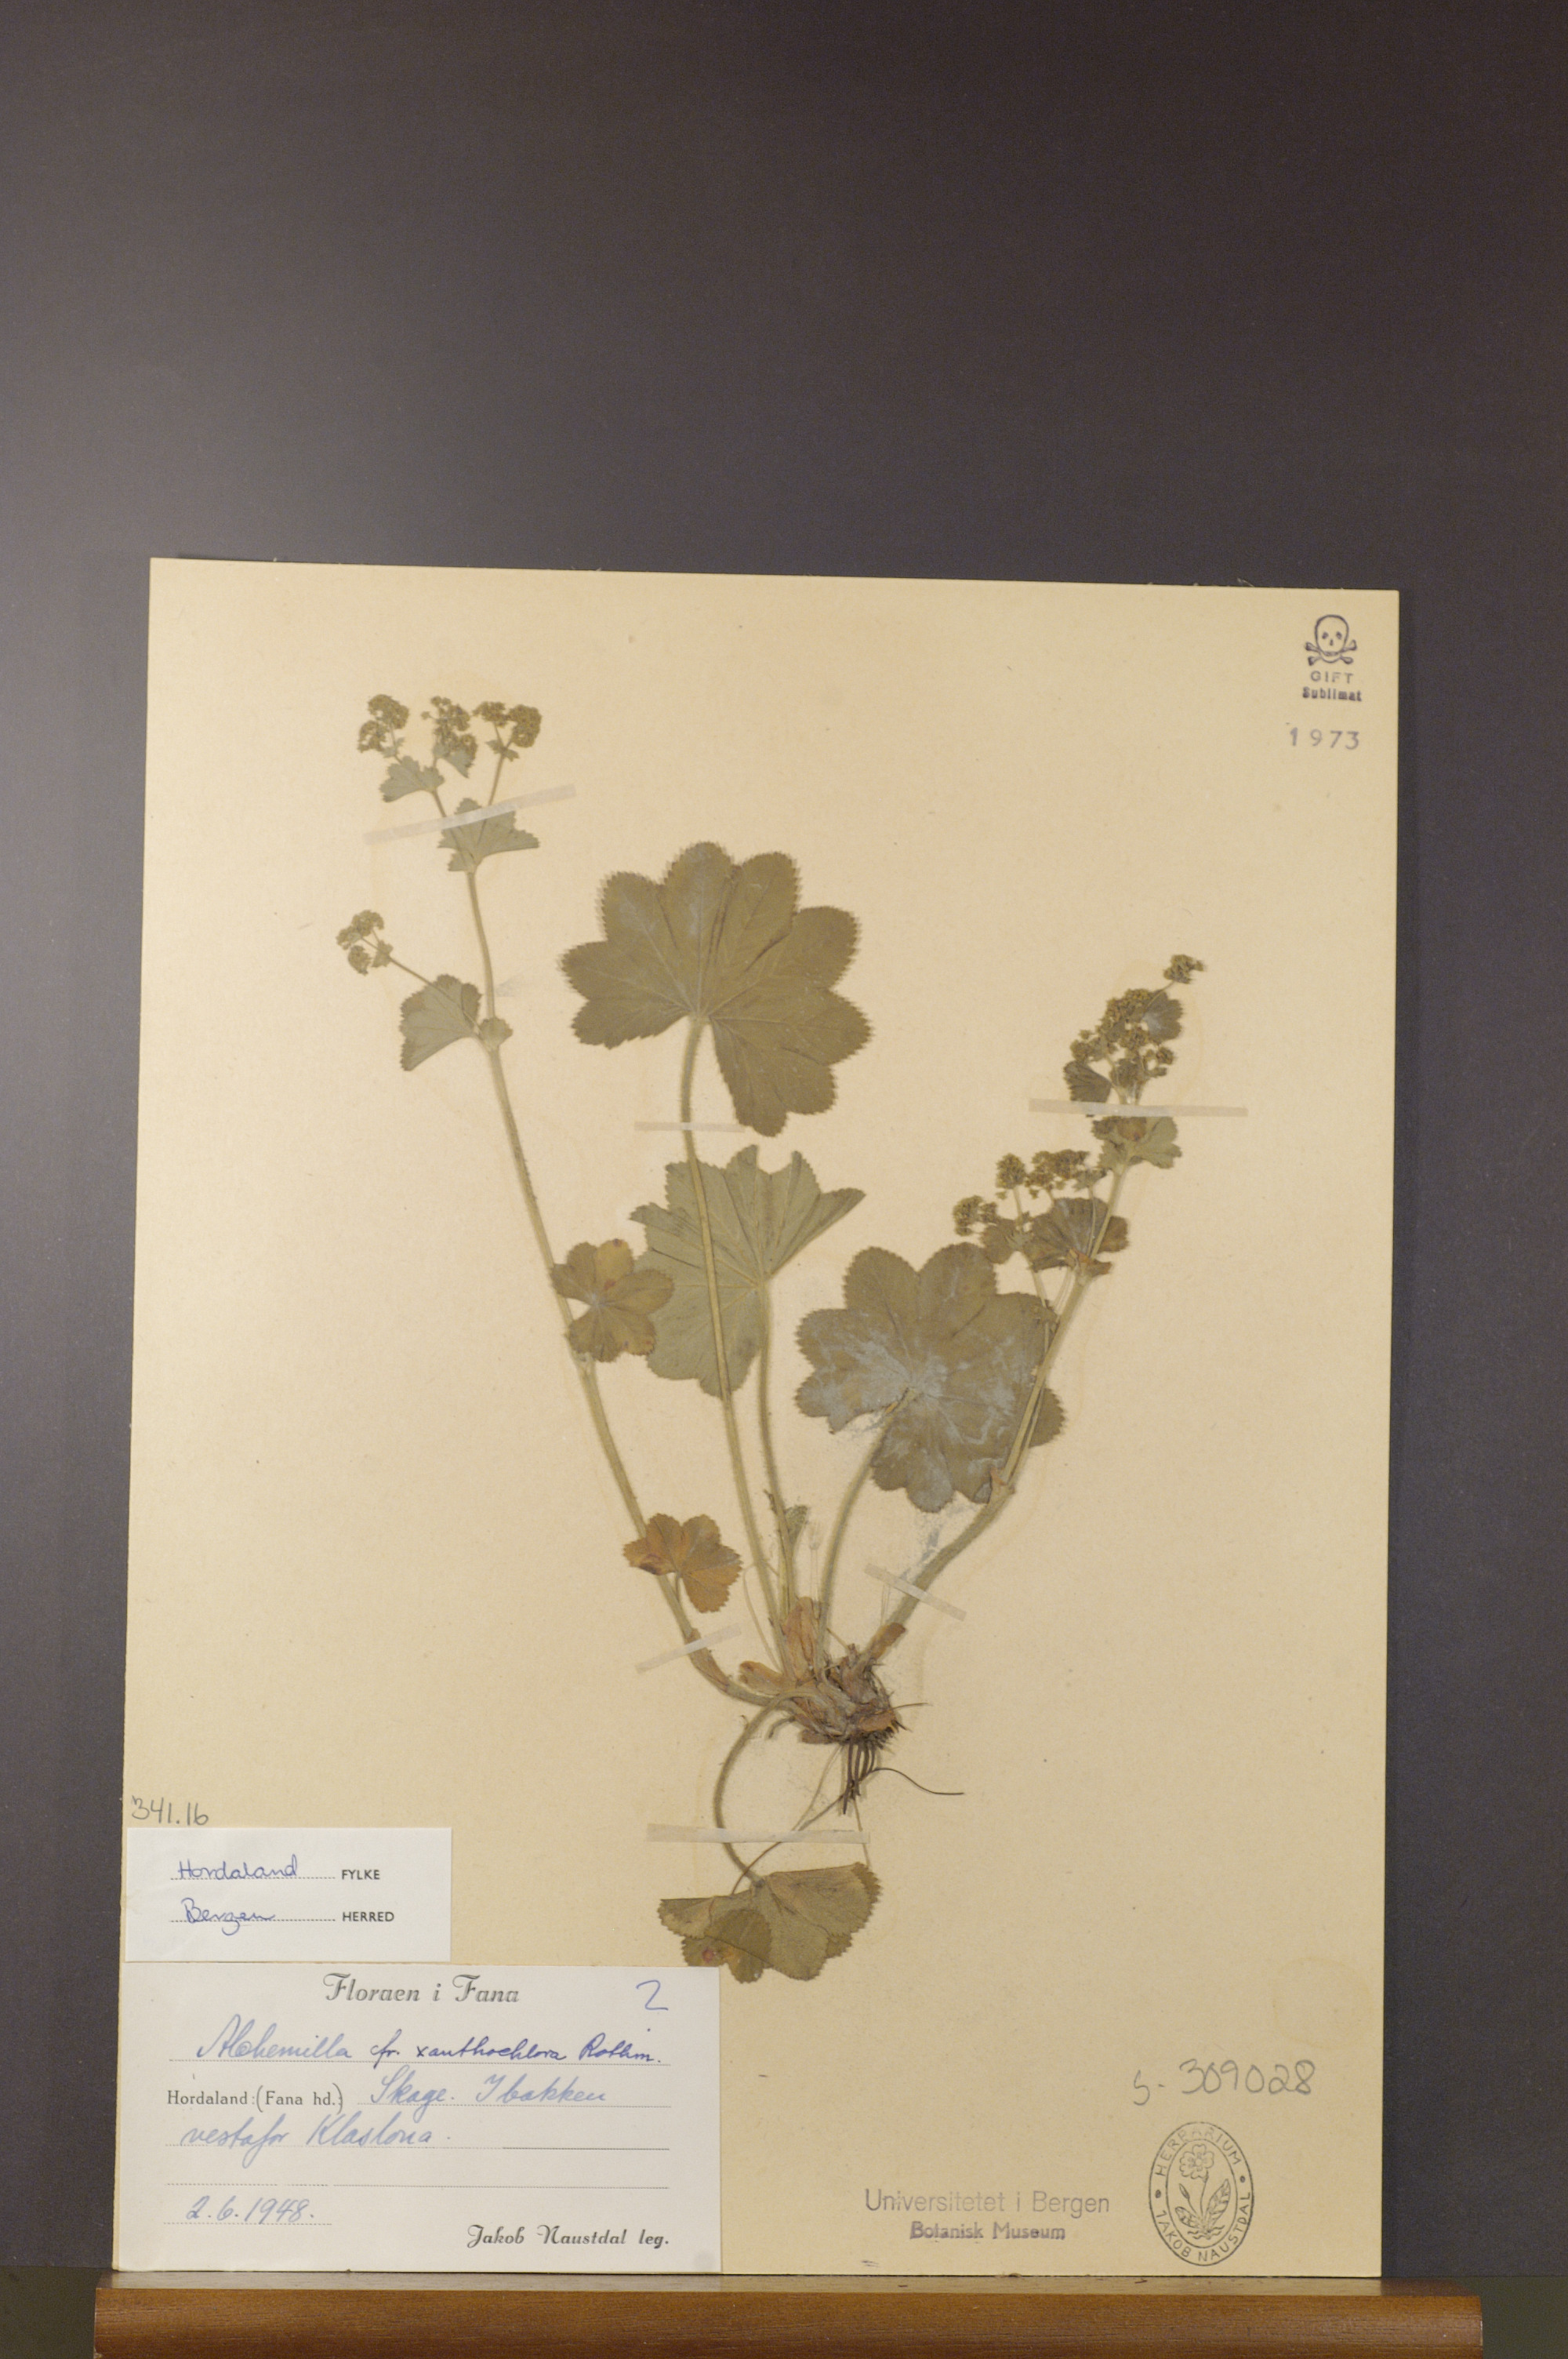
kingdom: Plantae
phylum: Tracheophyta
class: Magnoliopsida
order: Rosales
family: Rosaceae
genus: Alchemilla
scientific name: Alchemilla xanthochlora
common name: Intermediate lady's-mantle
